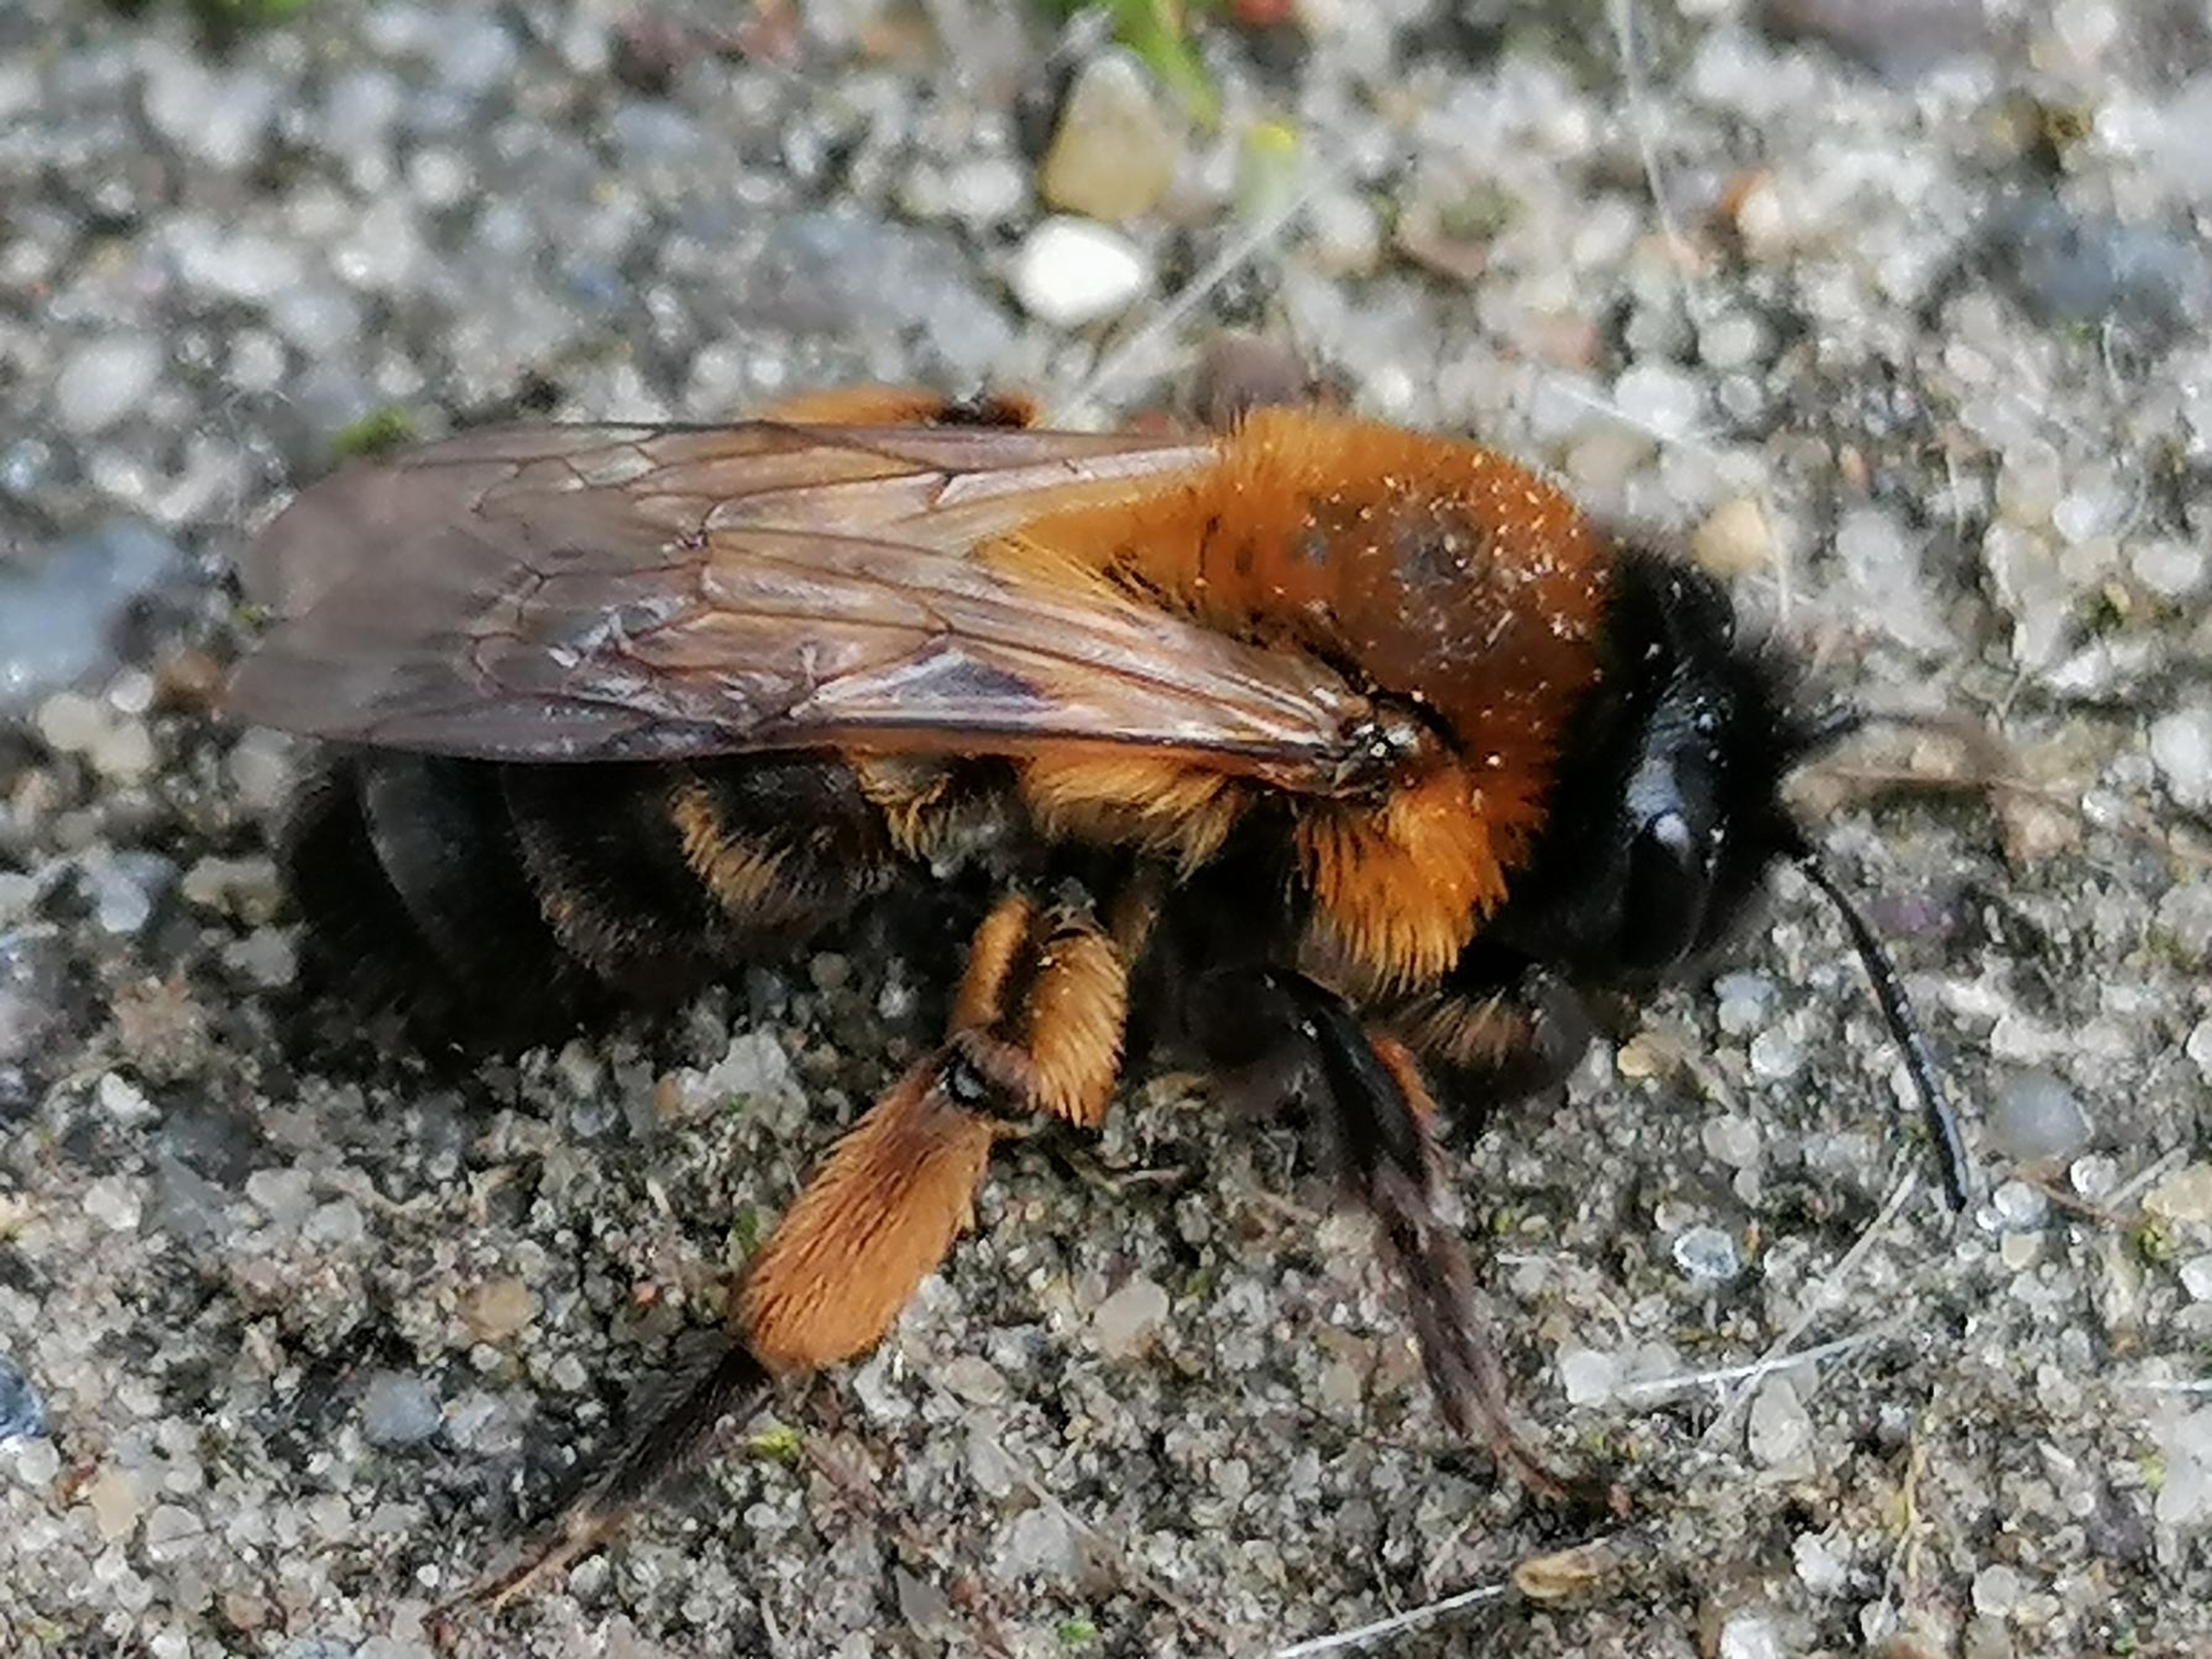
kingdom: Animalia
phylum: Arthropoda
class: Insecta
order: Hymenoptera
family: Andrenidae
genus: Andrena
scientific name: Andrena nigroaenea
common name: Sortbrun jordbi
